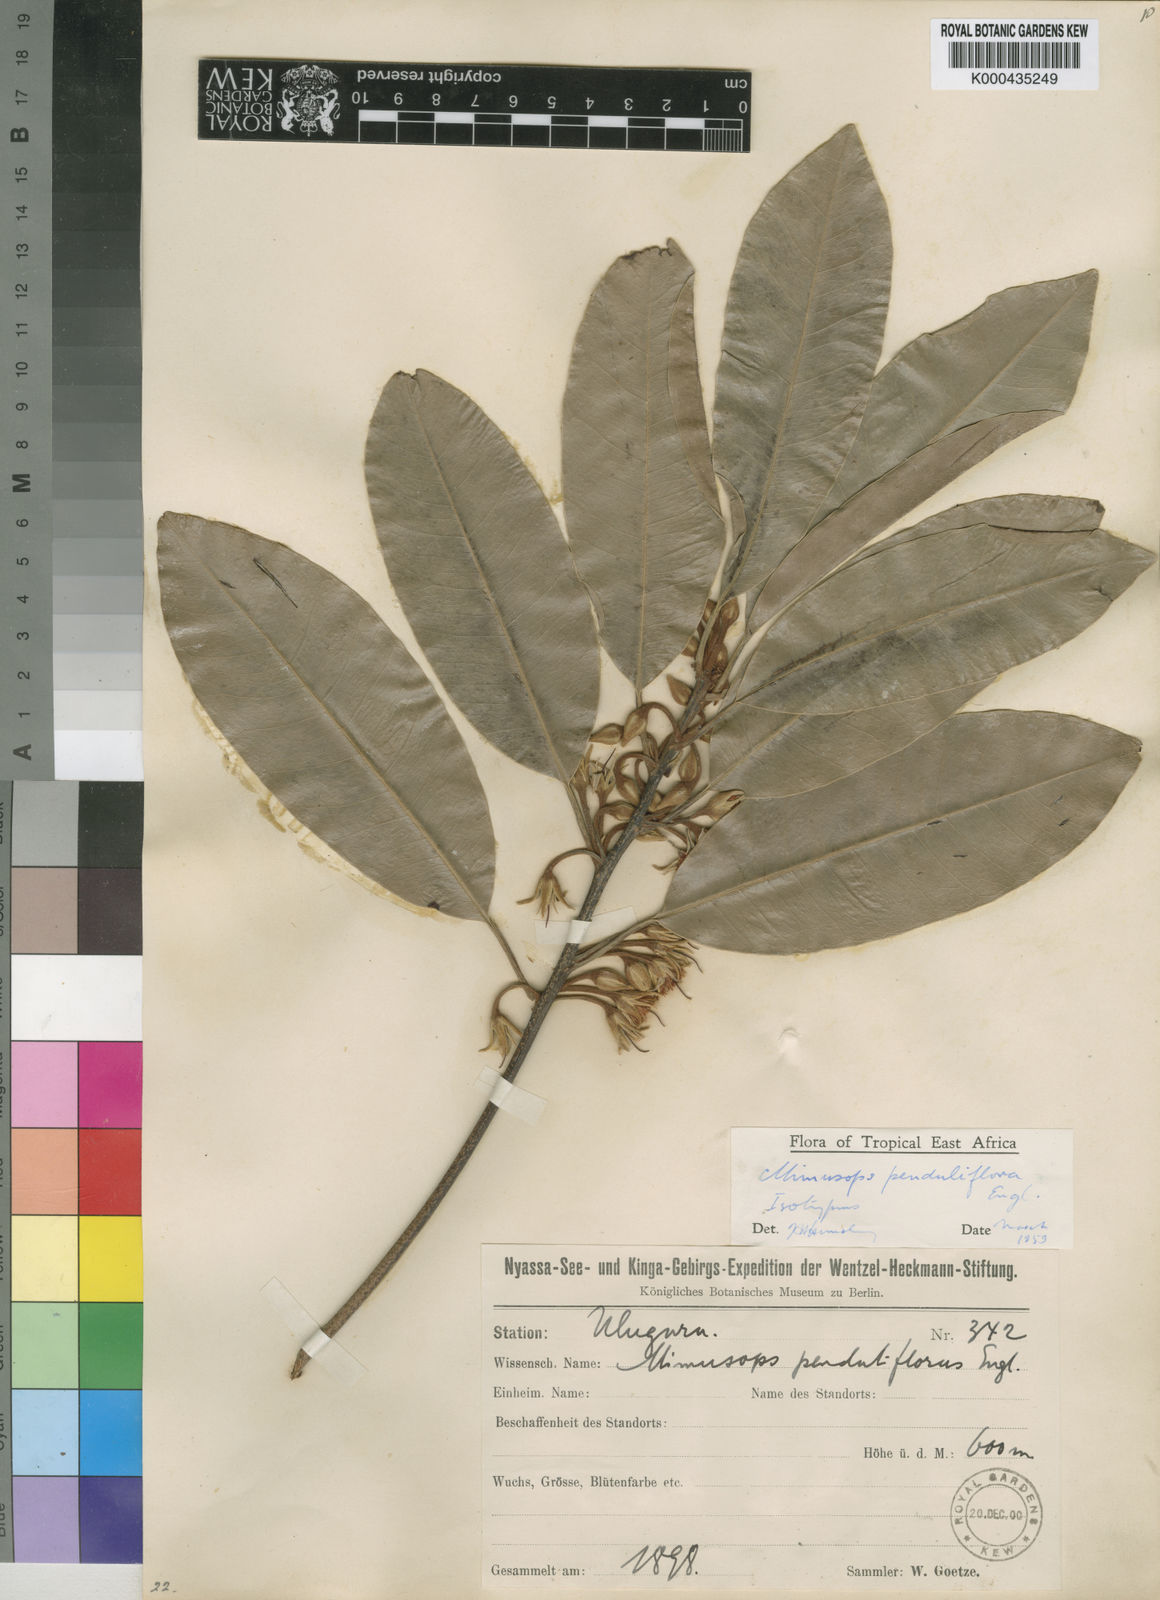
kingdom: Plantae
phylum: Tracheophyta
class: Magnoliopsida
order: Ericales
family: Sapotaceae
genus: Mimusops
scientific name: Mimusops penduliflora
